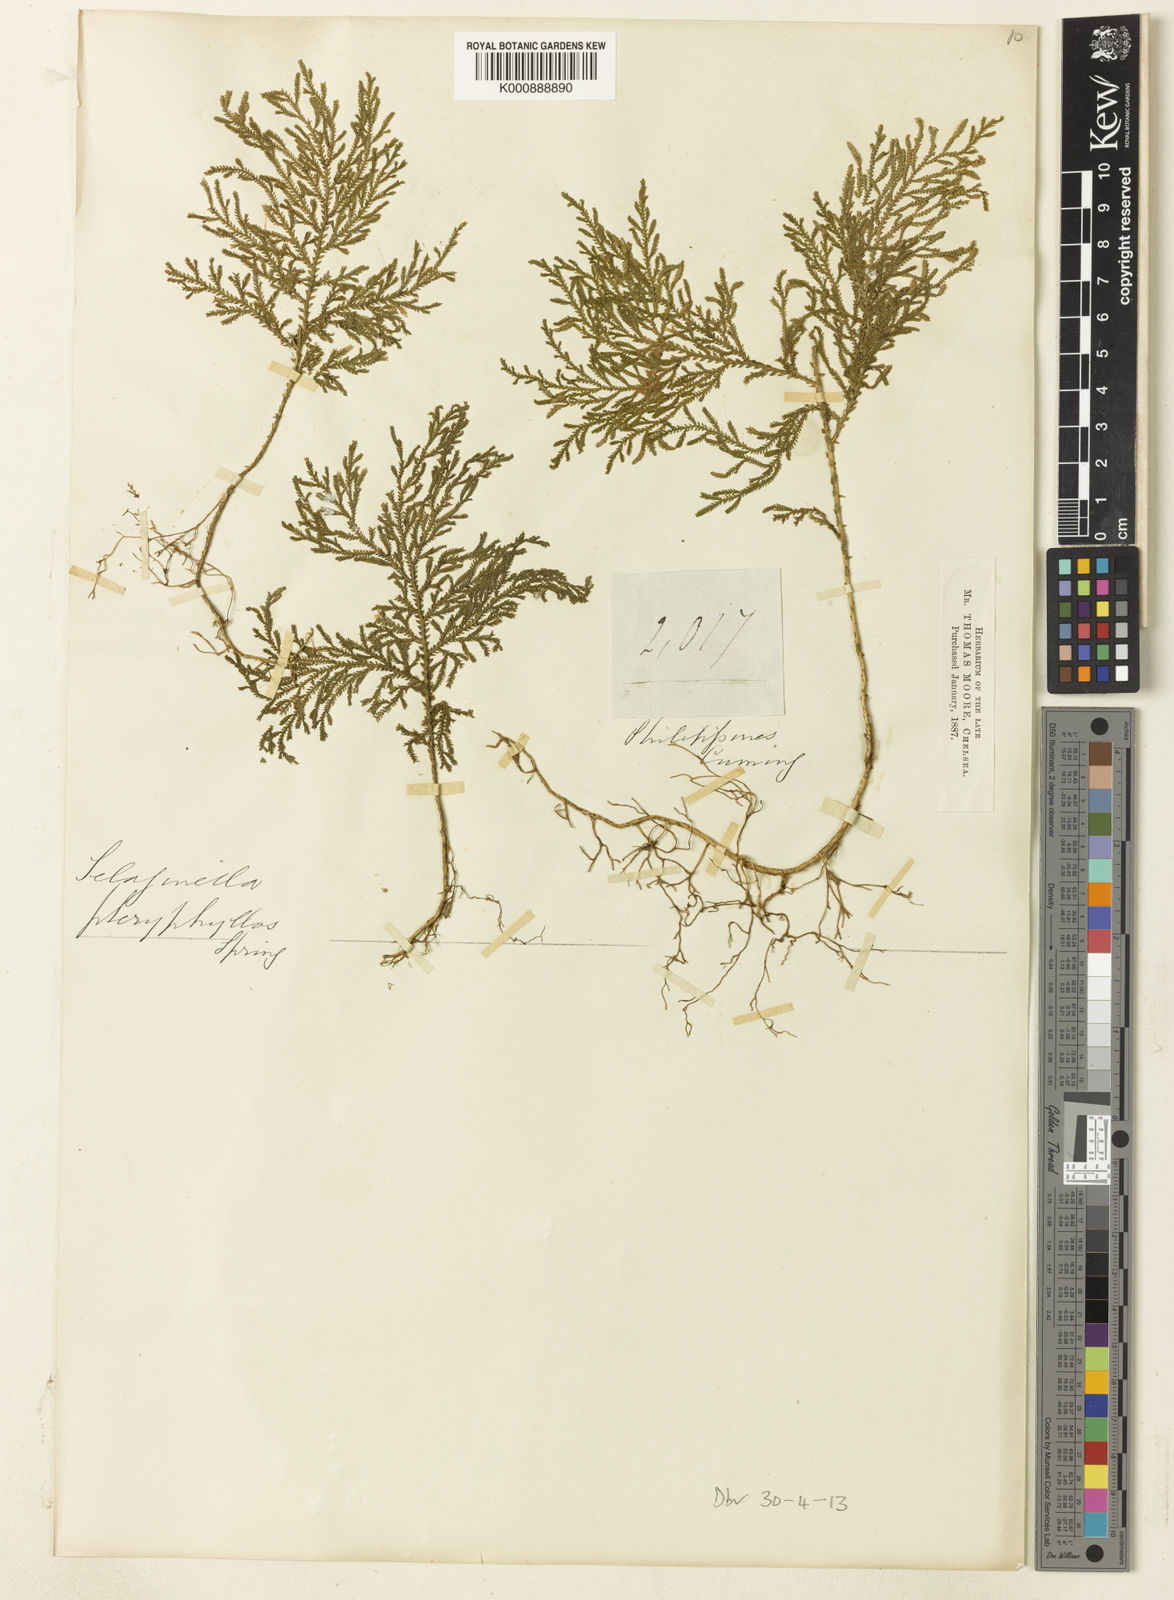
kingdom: Plantae
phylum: Tracheophyta
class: Lycopodiopsida
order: Selaginellales
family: Selaginellaceae
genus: Selaginella
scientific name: Selaginella
